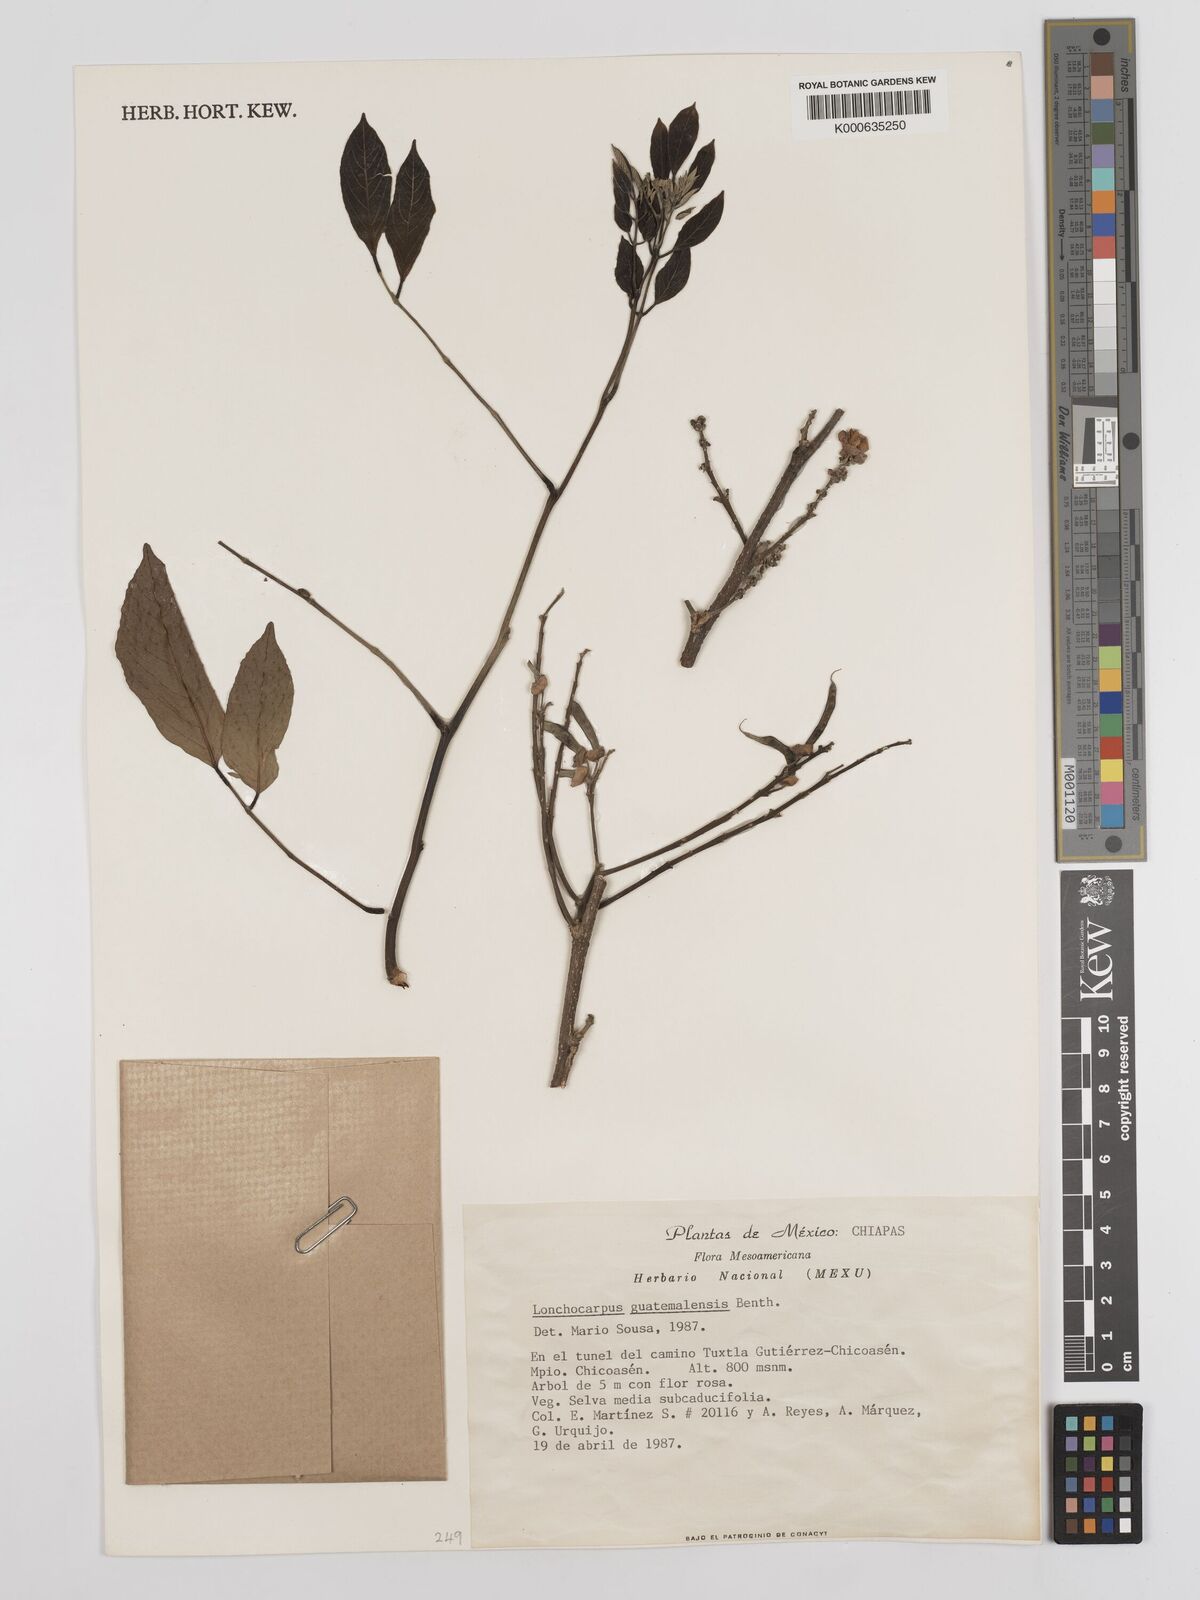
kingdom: Plantae
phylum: Tracheophyta
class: Magnoliopsida
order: Fabales
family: Fabaceae
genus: Lonchocarpus
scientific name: Lonchocarpus guatemalensis
